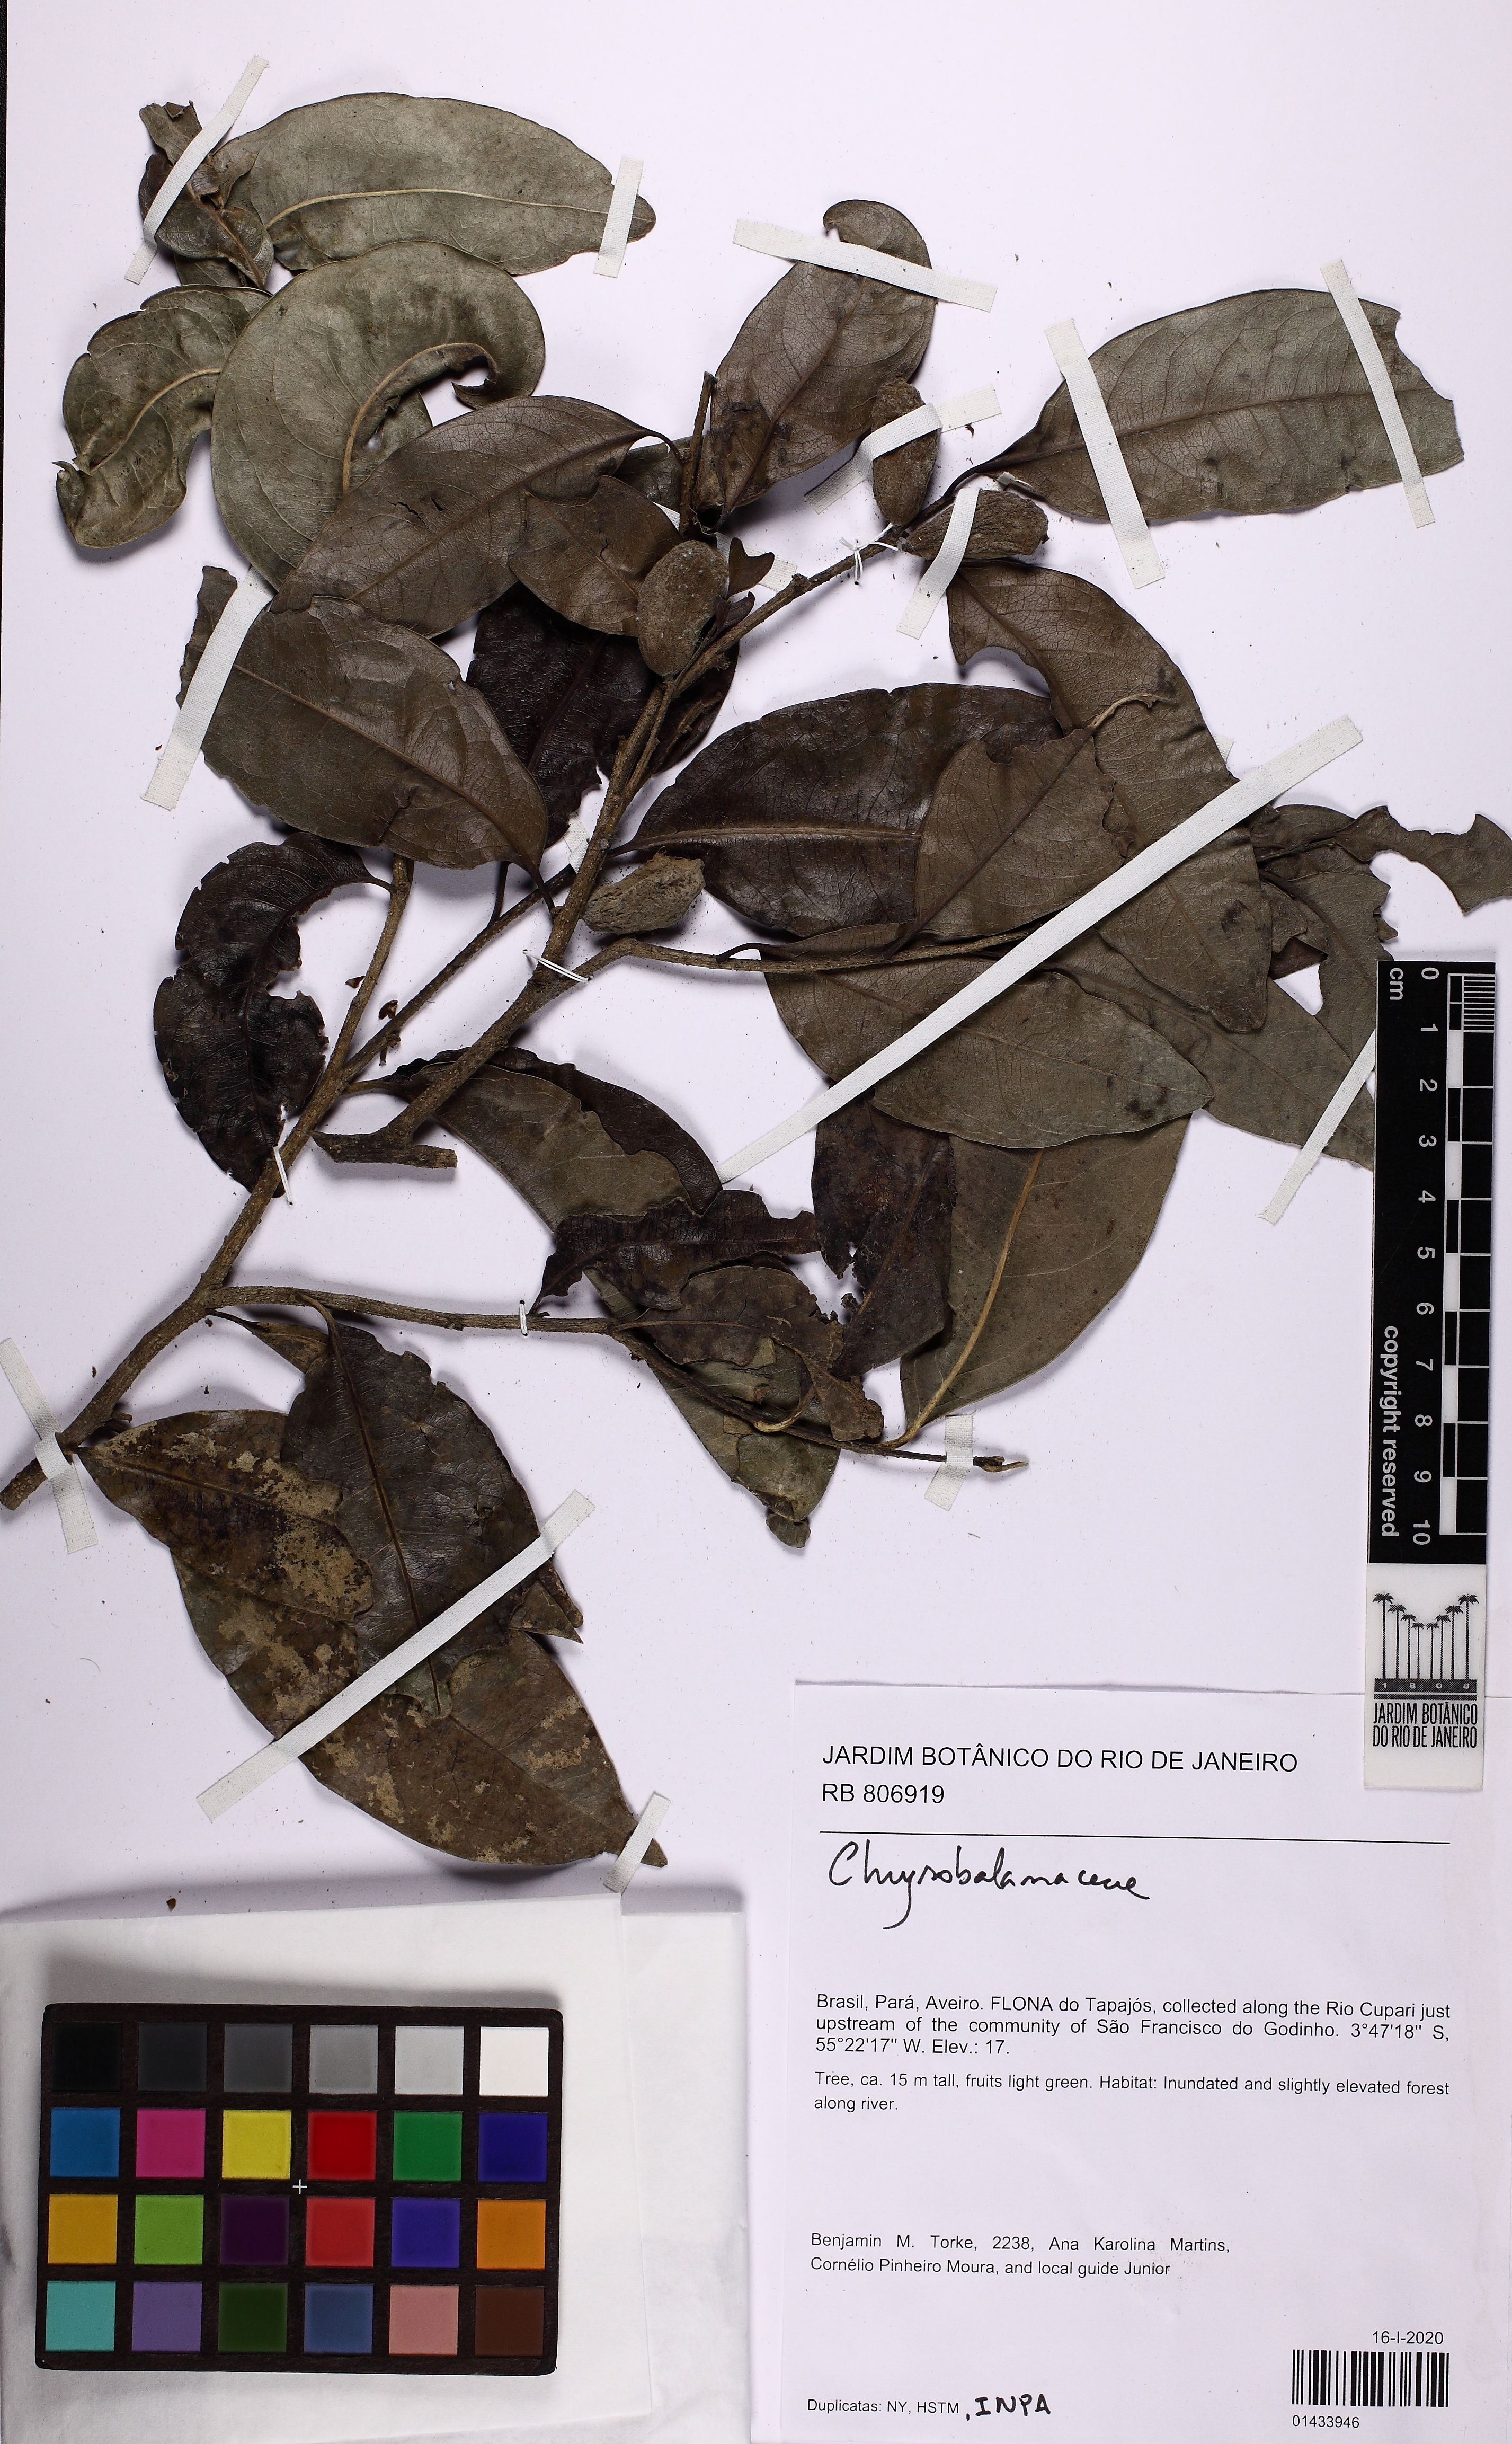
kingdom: Plantae
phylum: Tracheophyta
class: Magnoliopsida
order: Gentianales
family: Apocynaceae
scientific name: Apocynaceae
